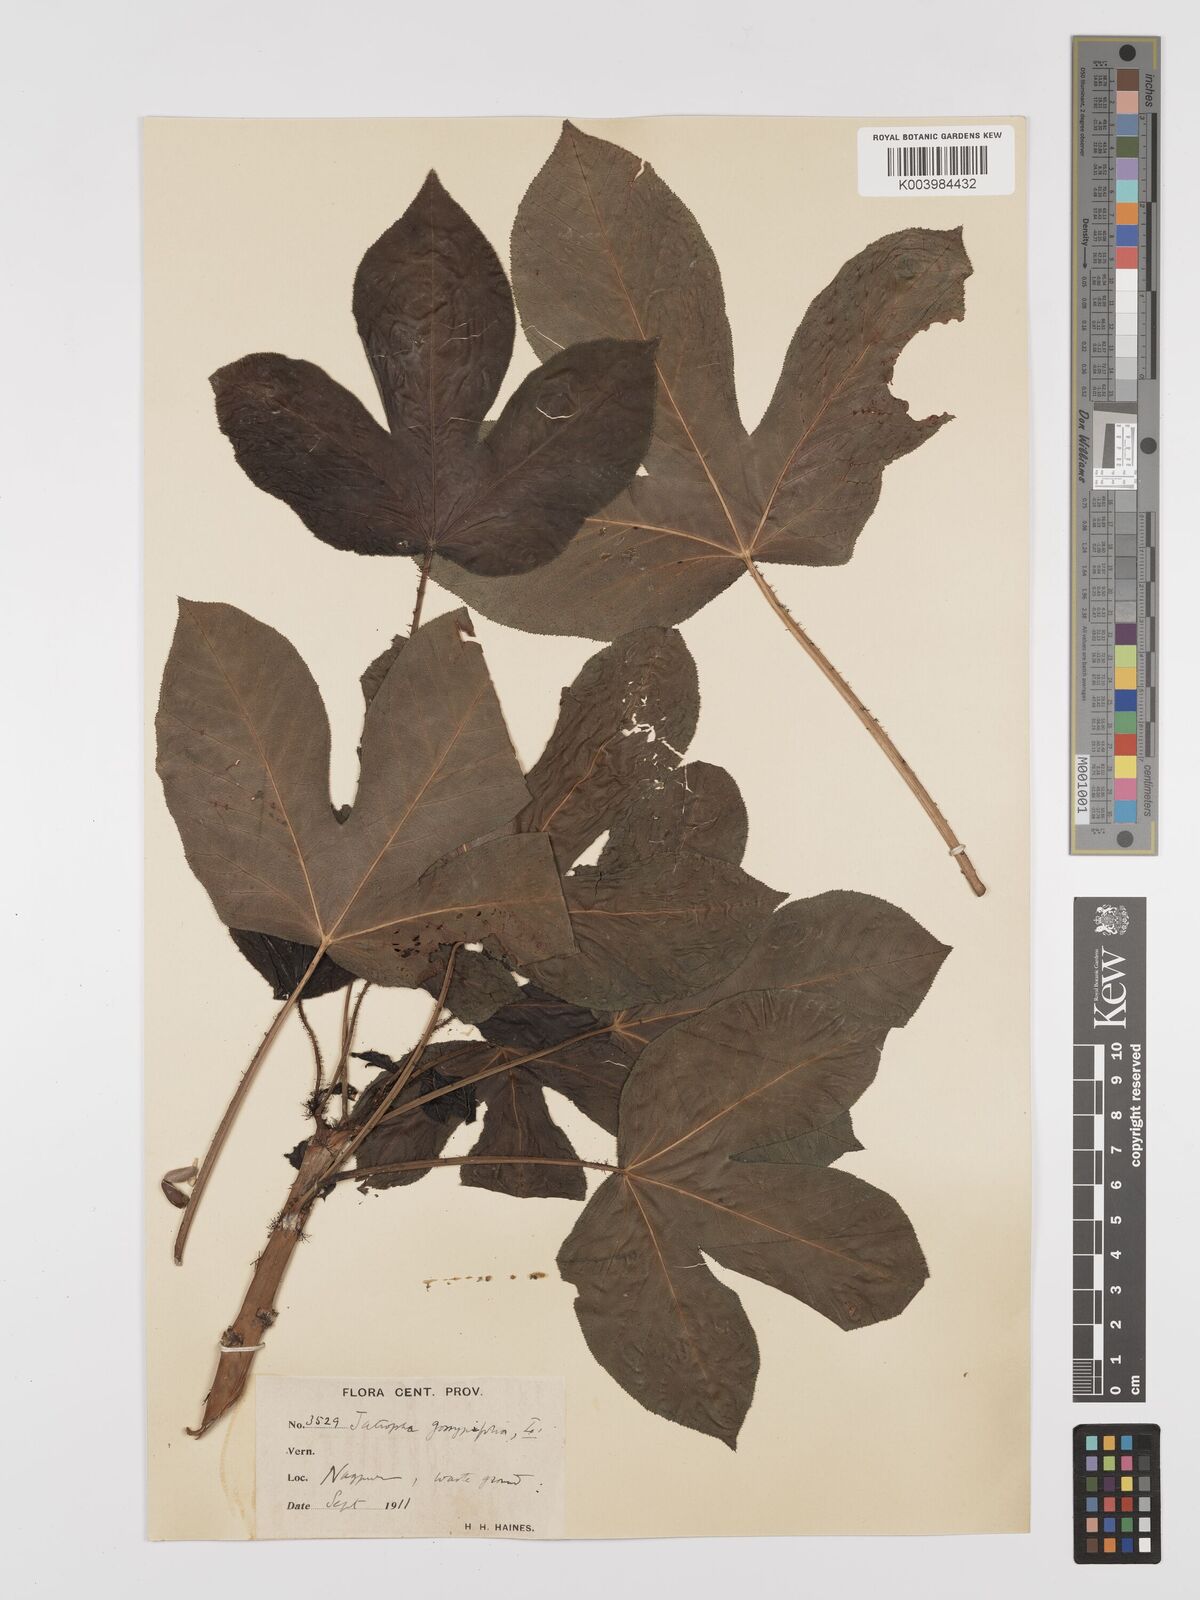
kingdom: Plantae
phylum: Tracheophyta
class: Magnoliopsida
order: Malpighiales
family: Euphorbiaceae
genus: Jatropha
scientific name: Jatropha gossypiifolia
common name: Bellyache bush
